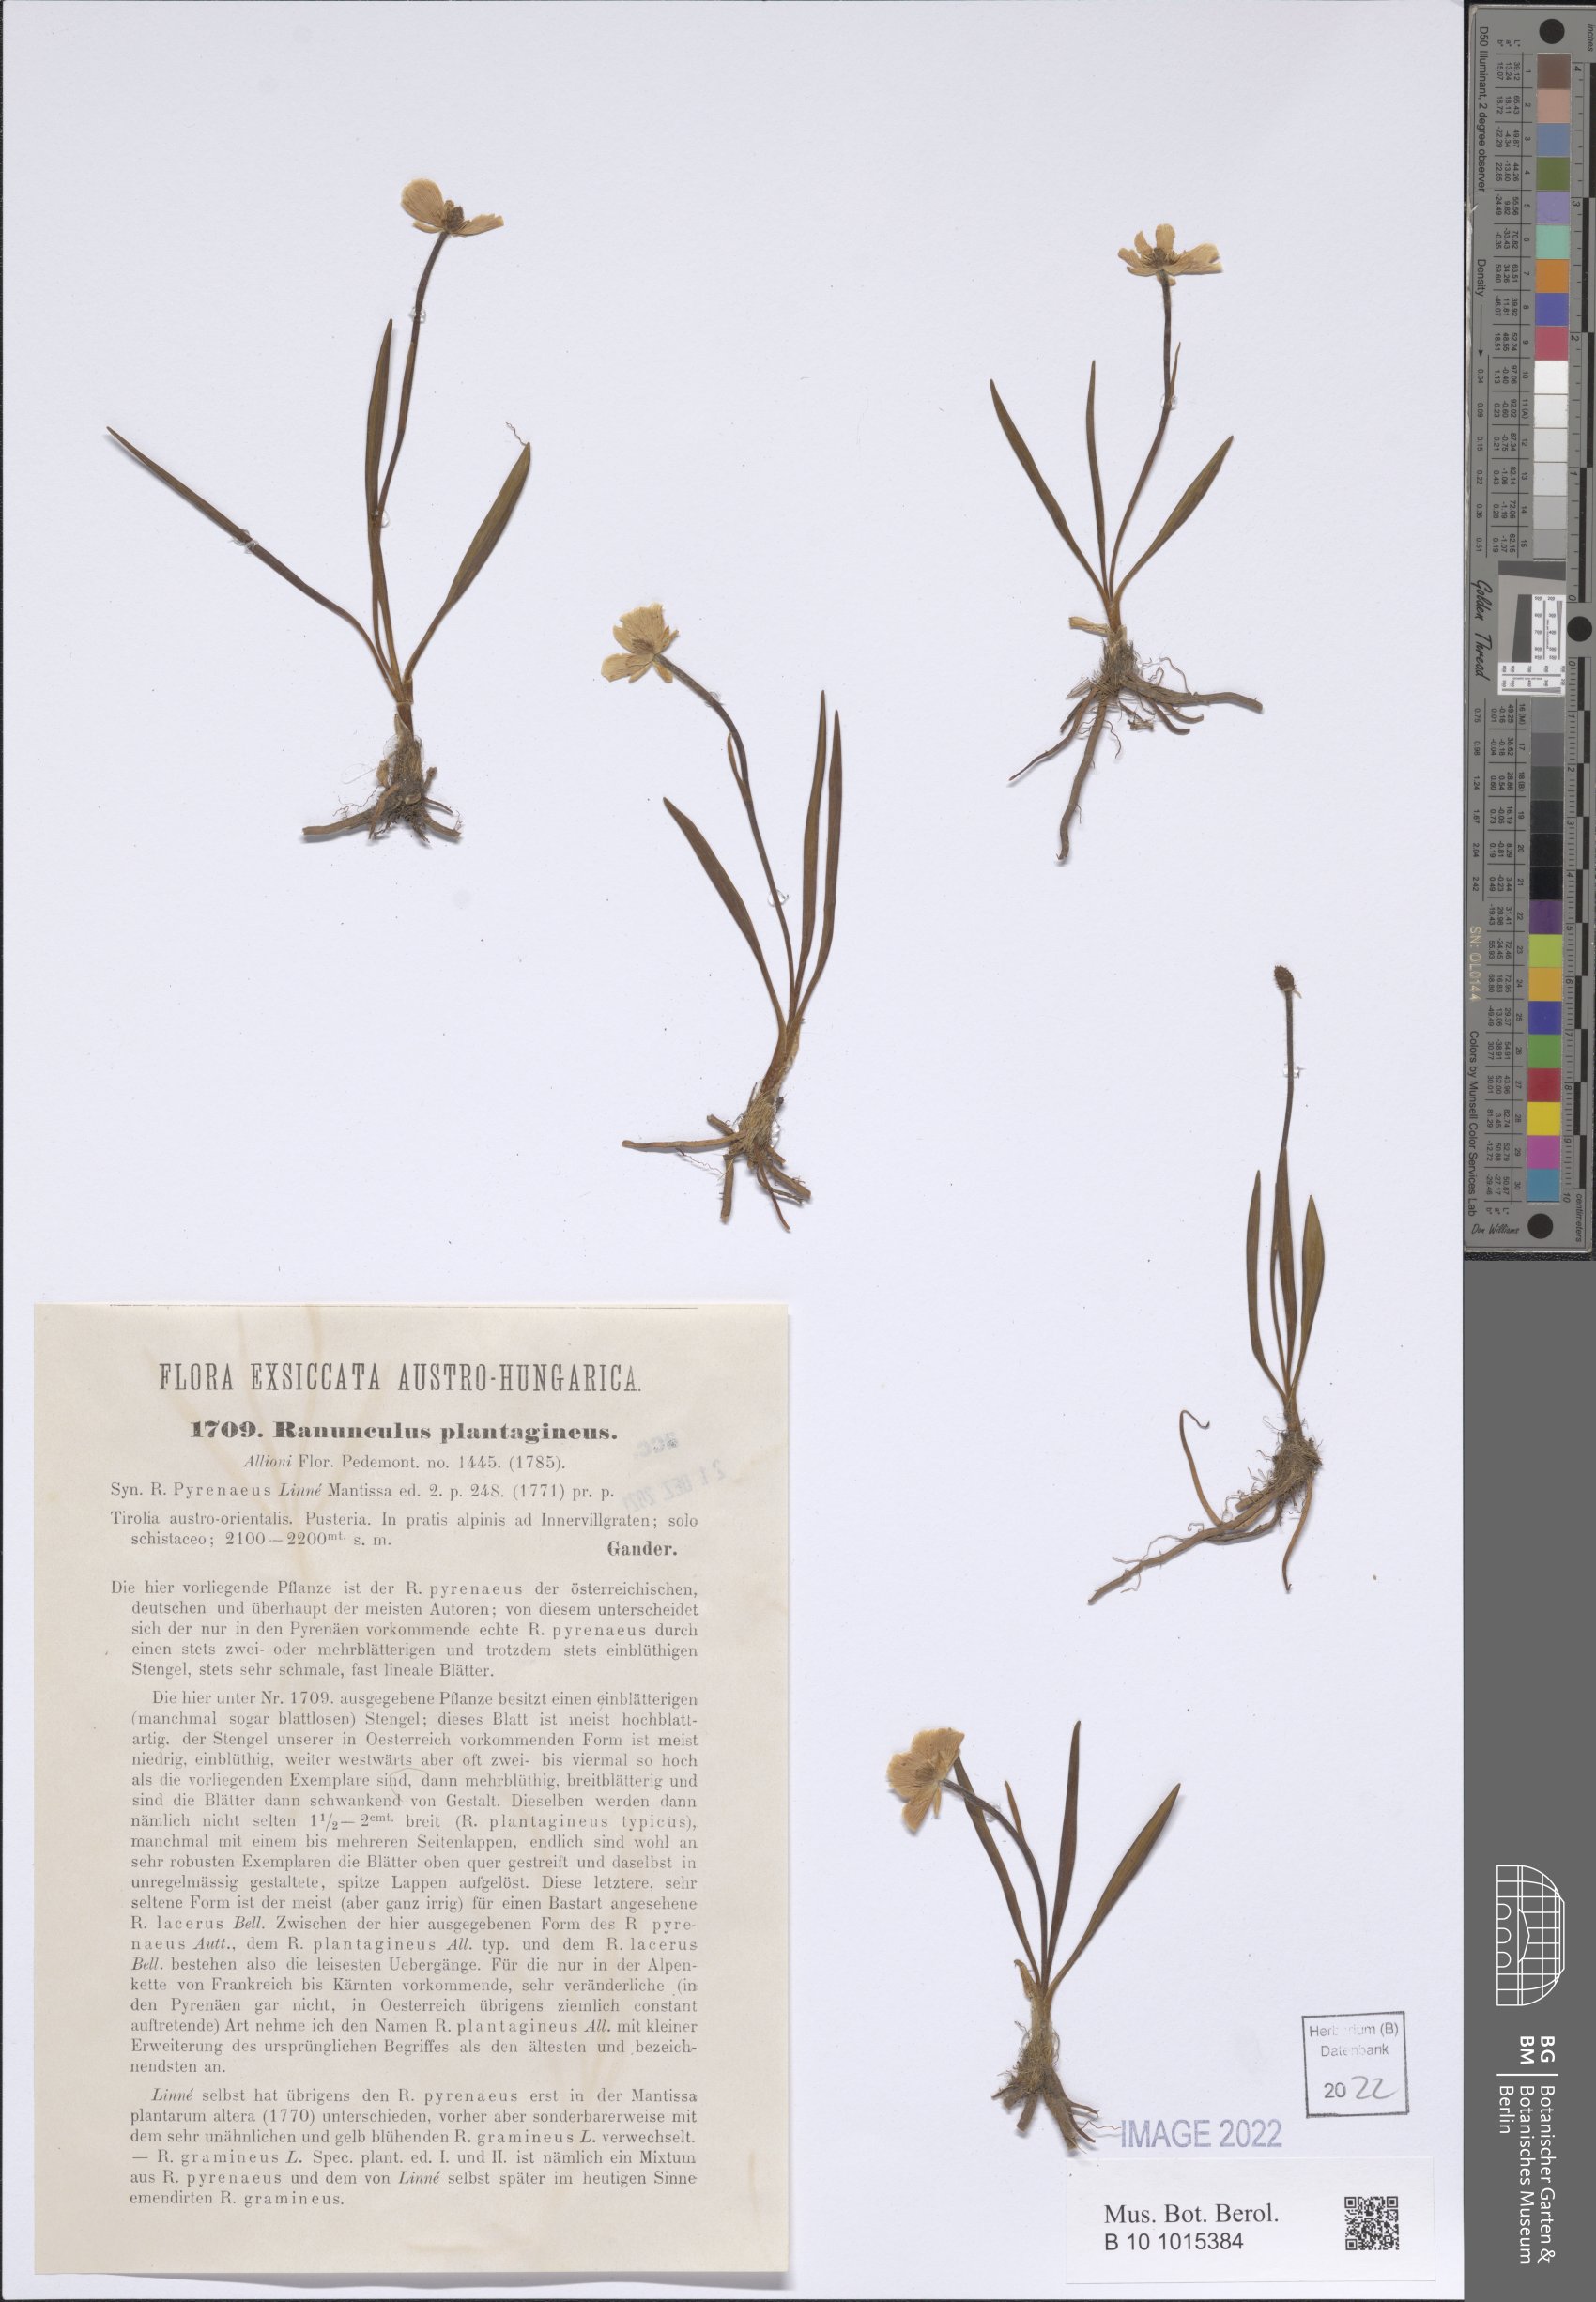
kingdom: Plantae
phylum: Tracheophyta
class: Magnoliopsida
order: Ranunculales
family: Ranunculaceae
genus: Ranunculus
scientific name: Ranunculus pyrenaeus
